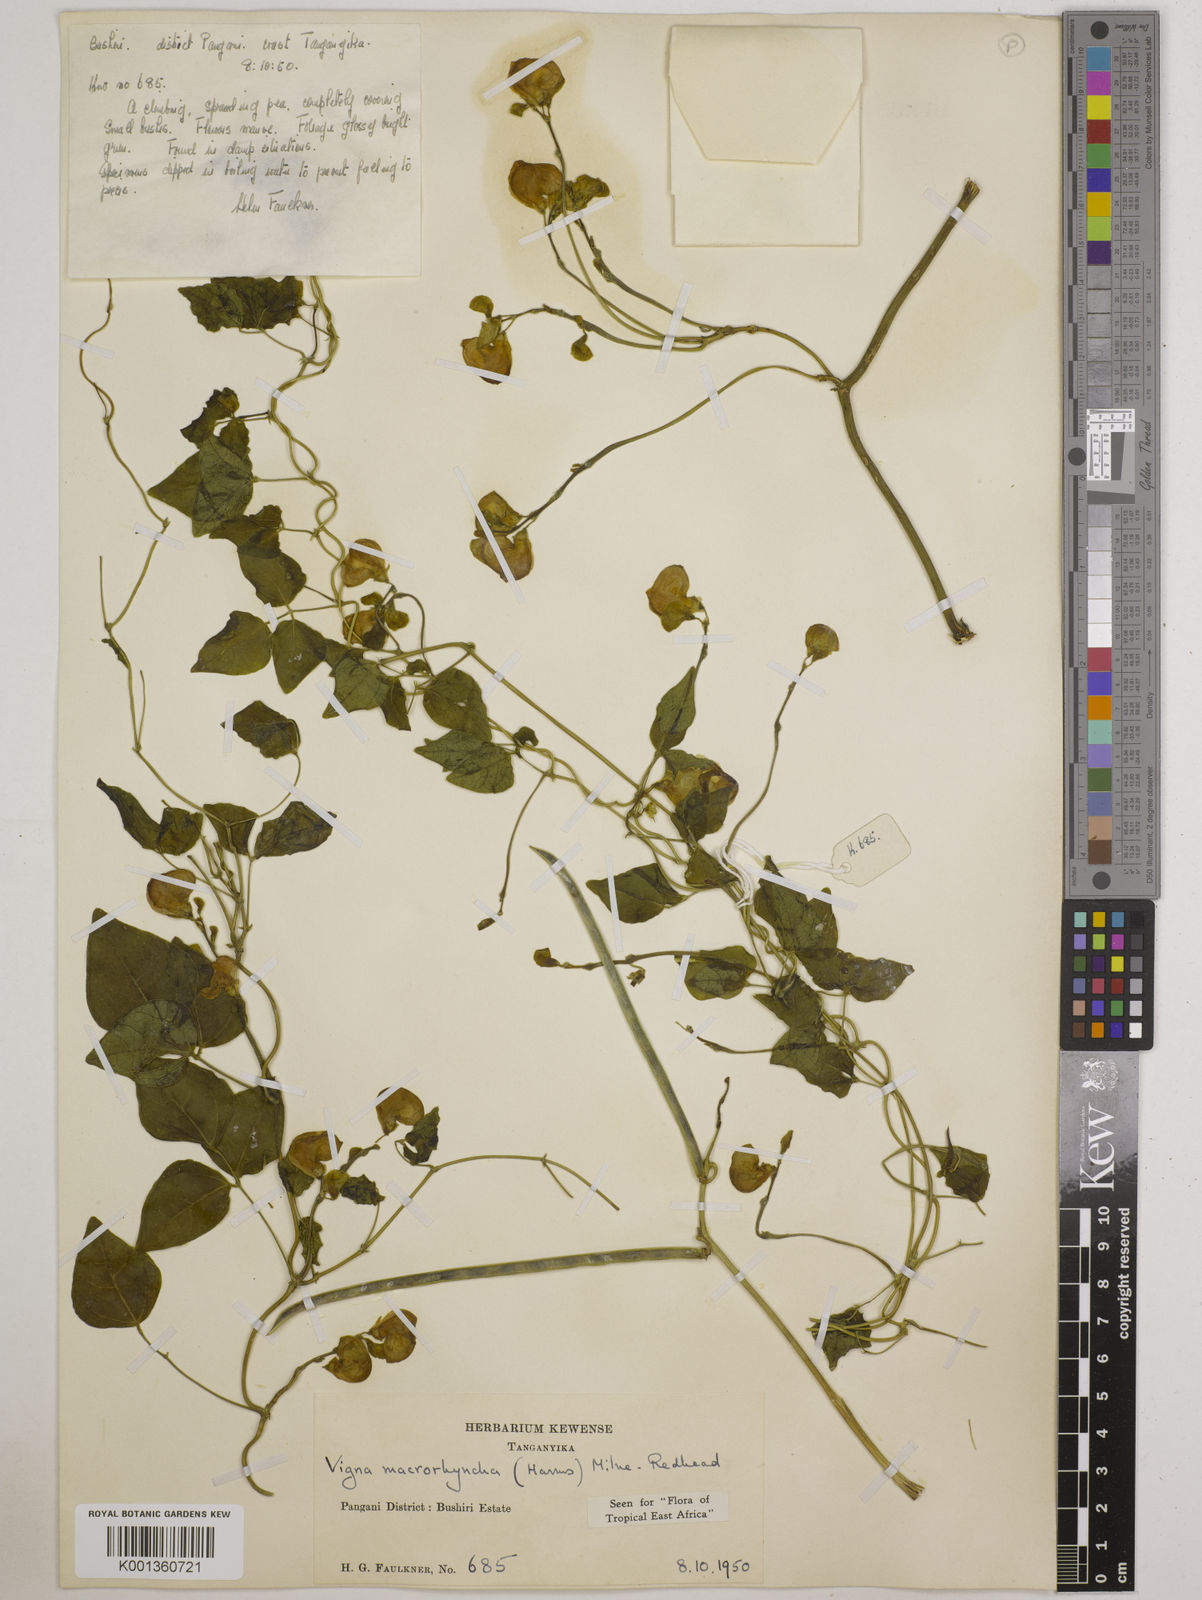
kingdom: Plantae
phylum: Tracheophyta
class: Magnoliopsida
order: Fabales
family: Fabaceae
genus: Wajira
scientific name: Wajira grahamiana
